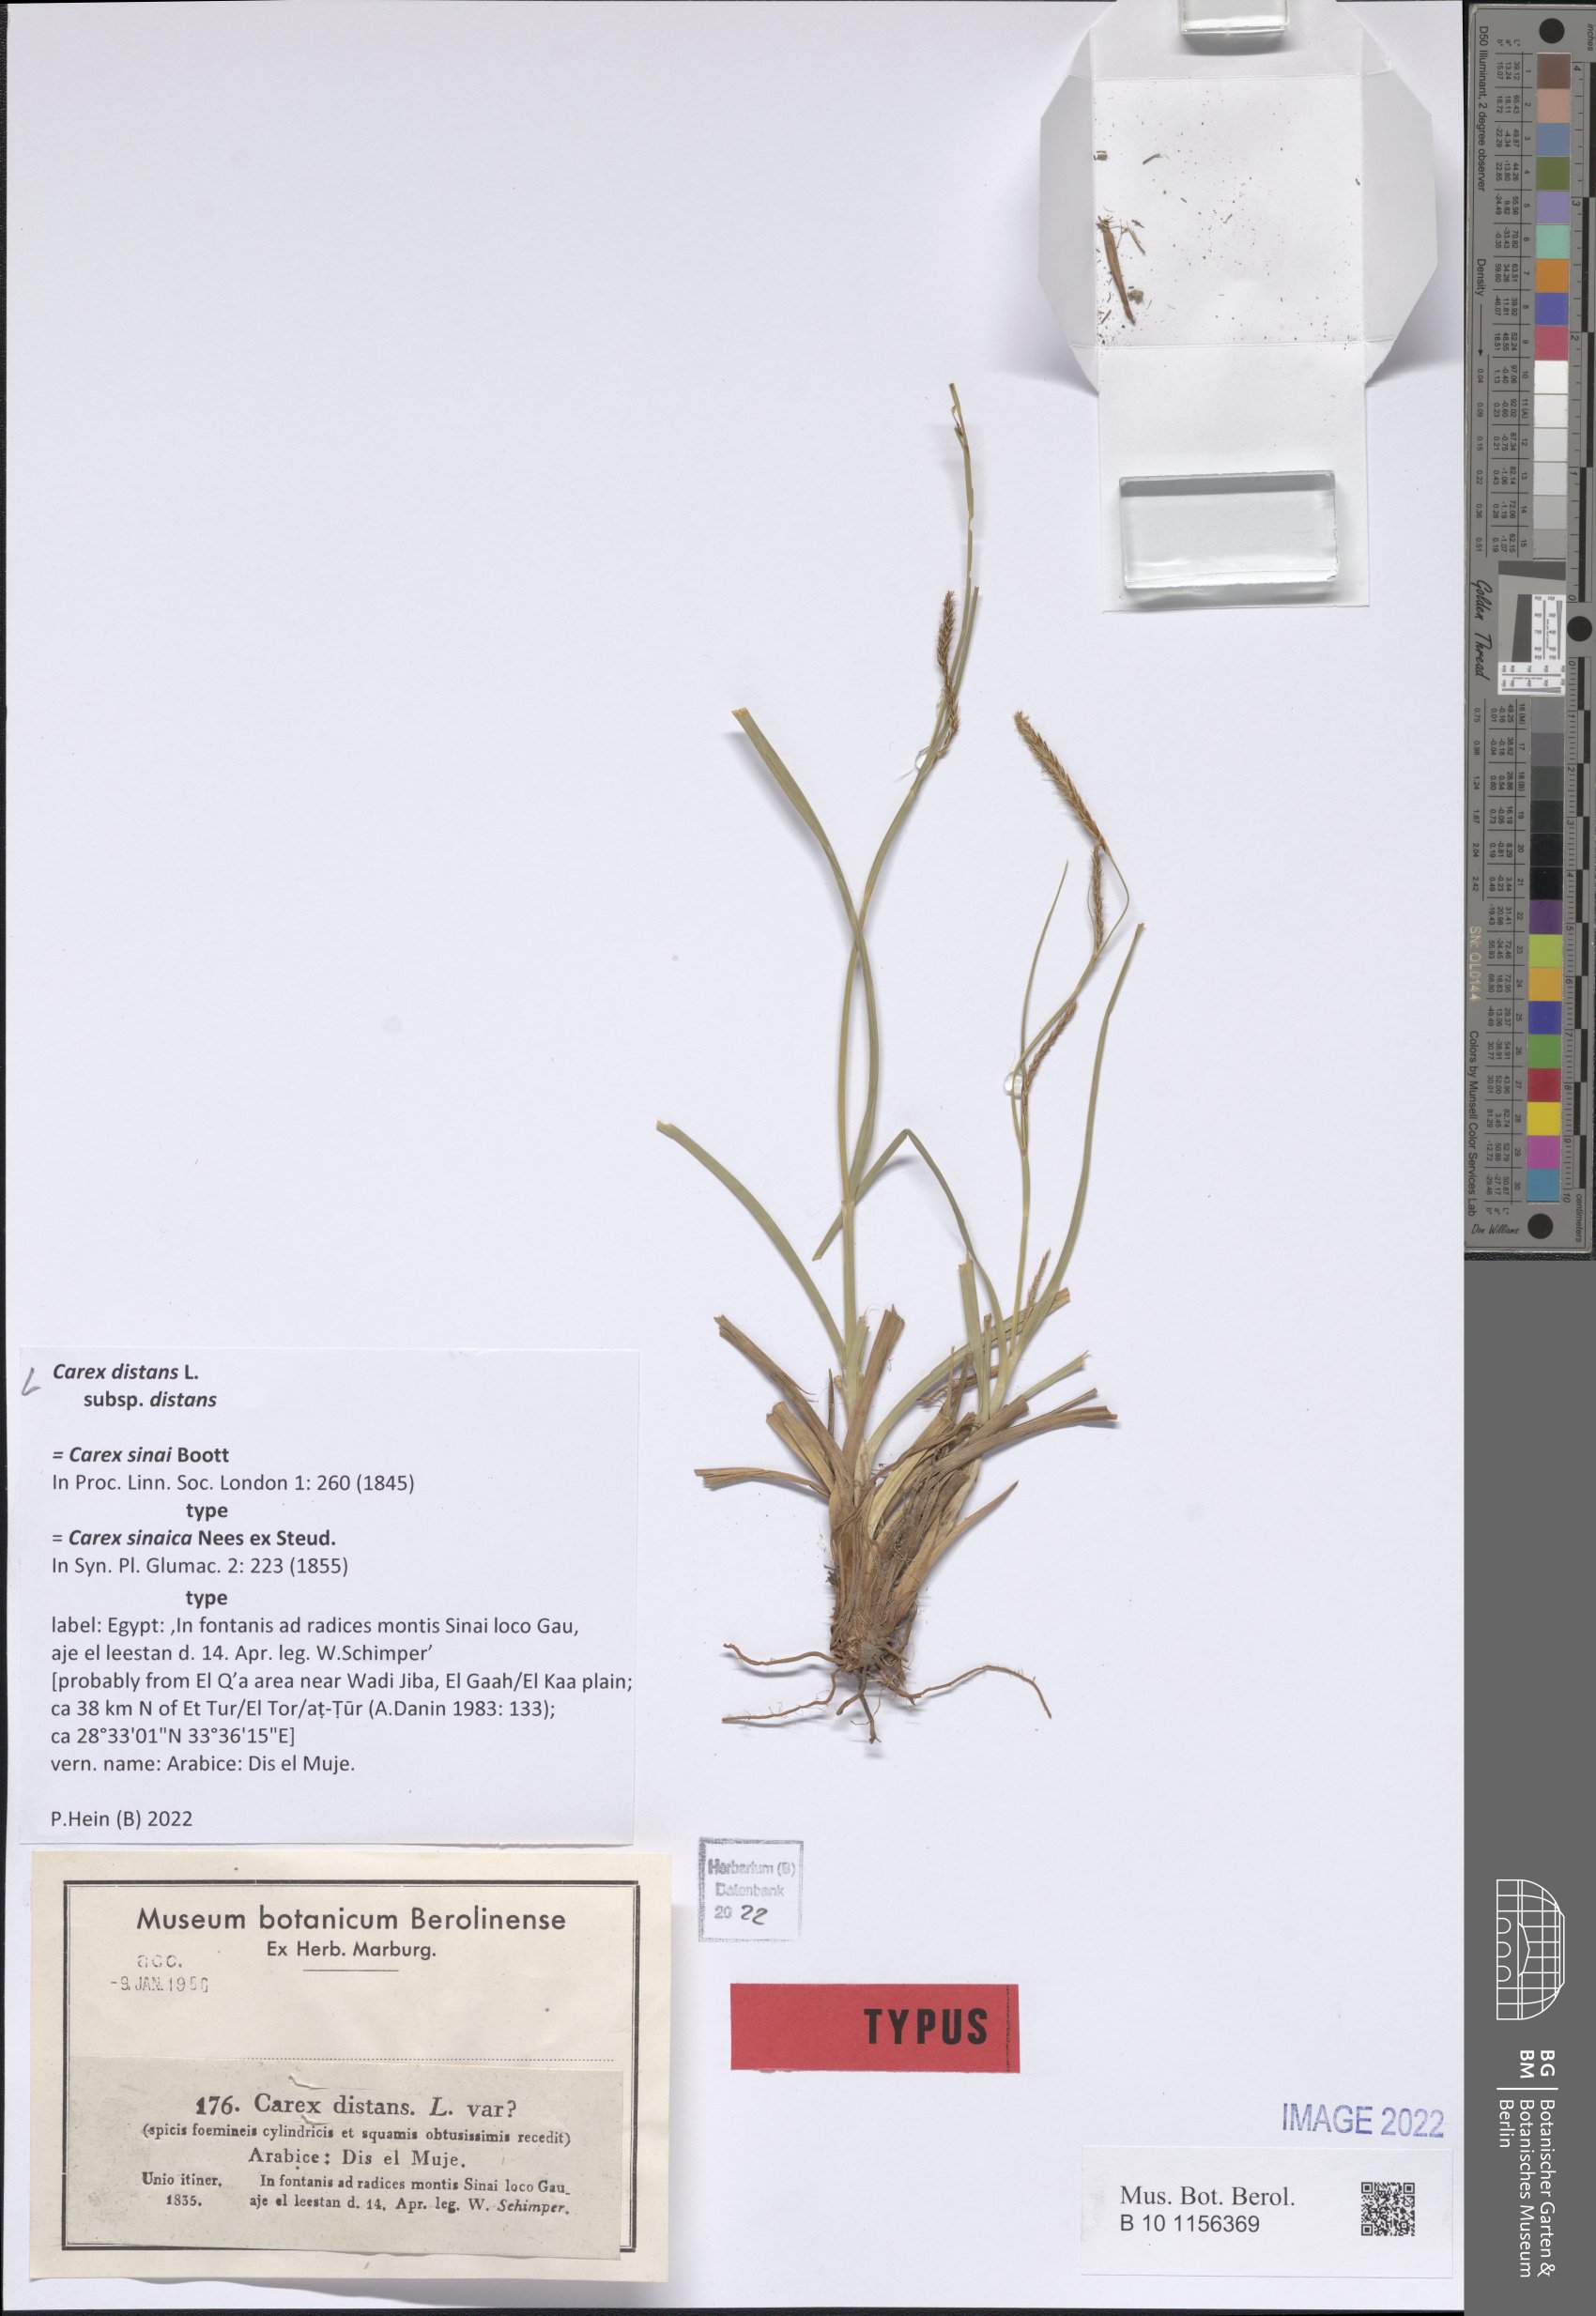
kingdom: Plantae
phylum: Tracheophyta
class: Liliopsida
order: Poales
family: Cyperaceae
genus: Carex
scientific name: Carex distans
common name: Distant sedge
